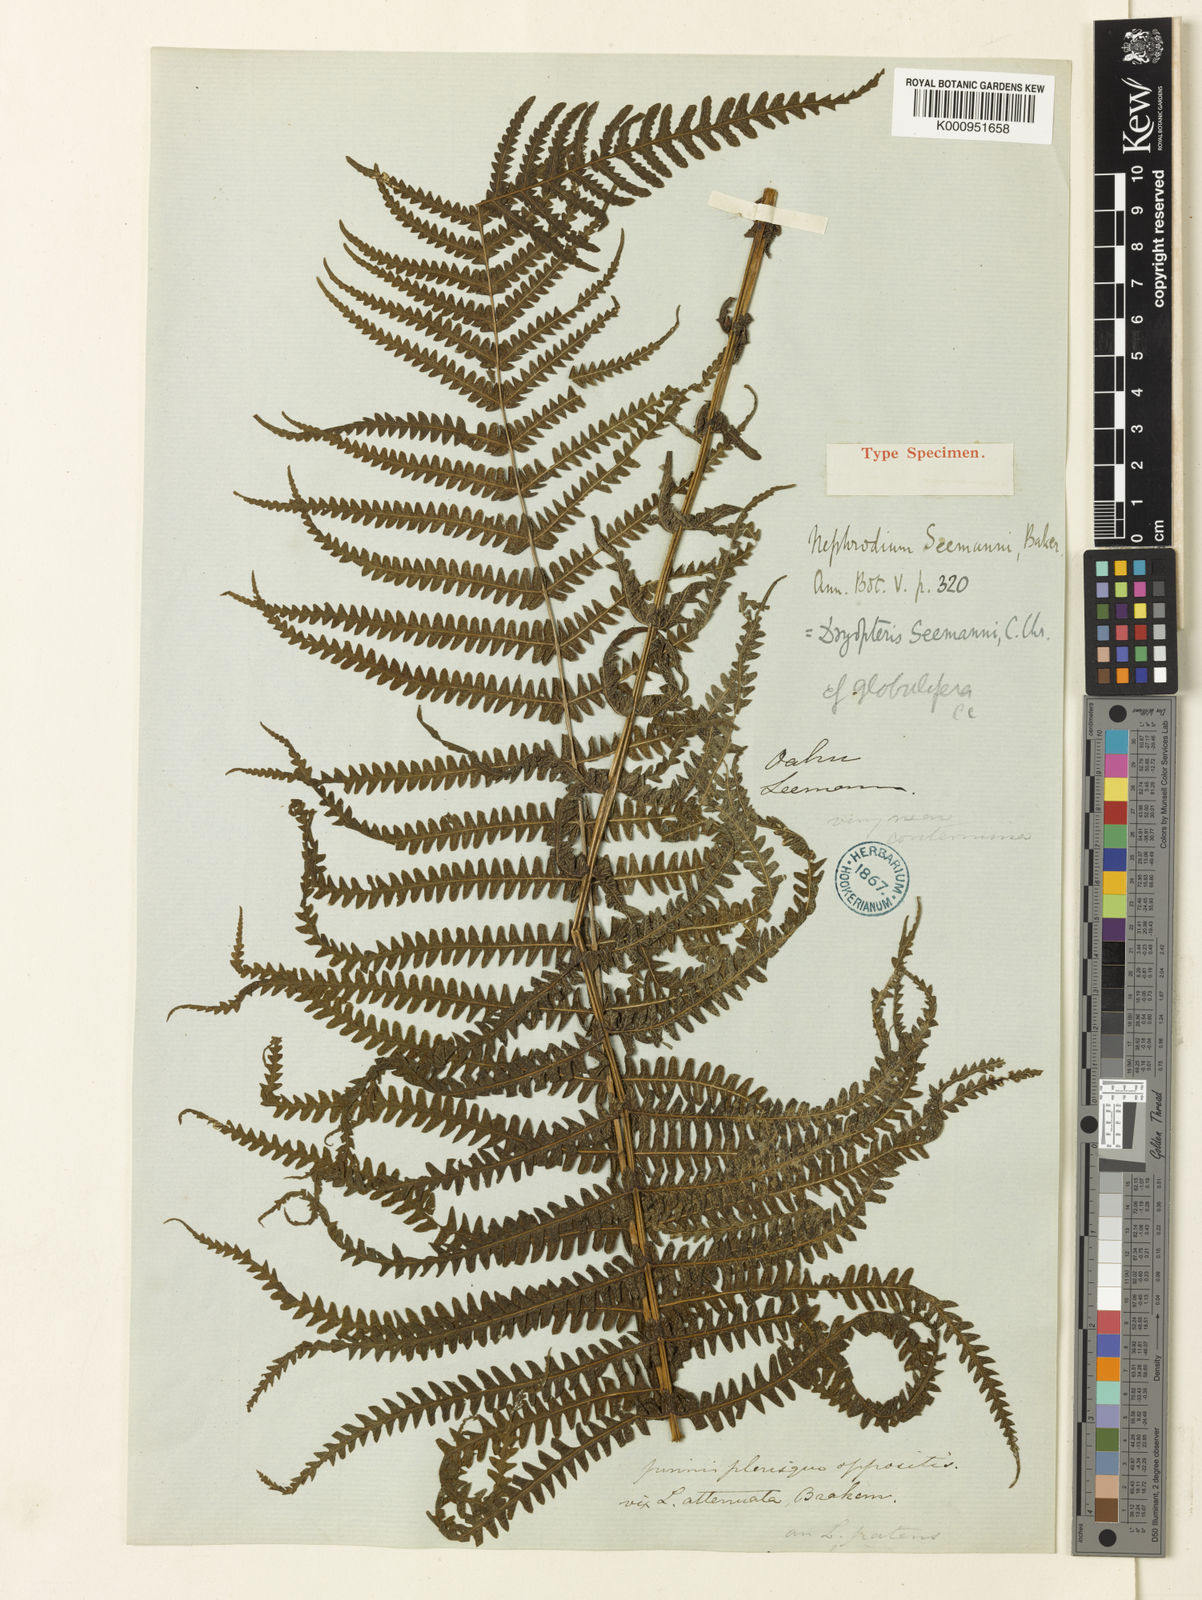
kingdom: Plantae
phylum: Tracheophyta
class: Polypodiopsida
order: Polypodiales
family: Thelypteridaceae
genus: Amauropelta
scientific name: Amauropelta globulifera
